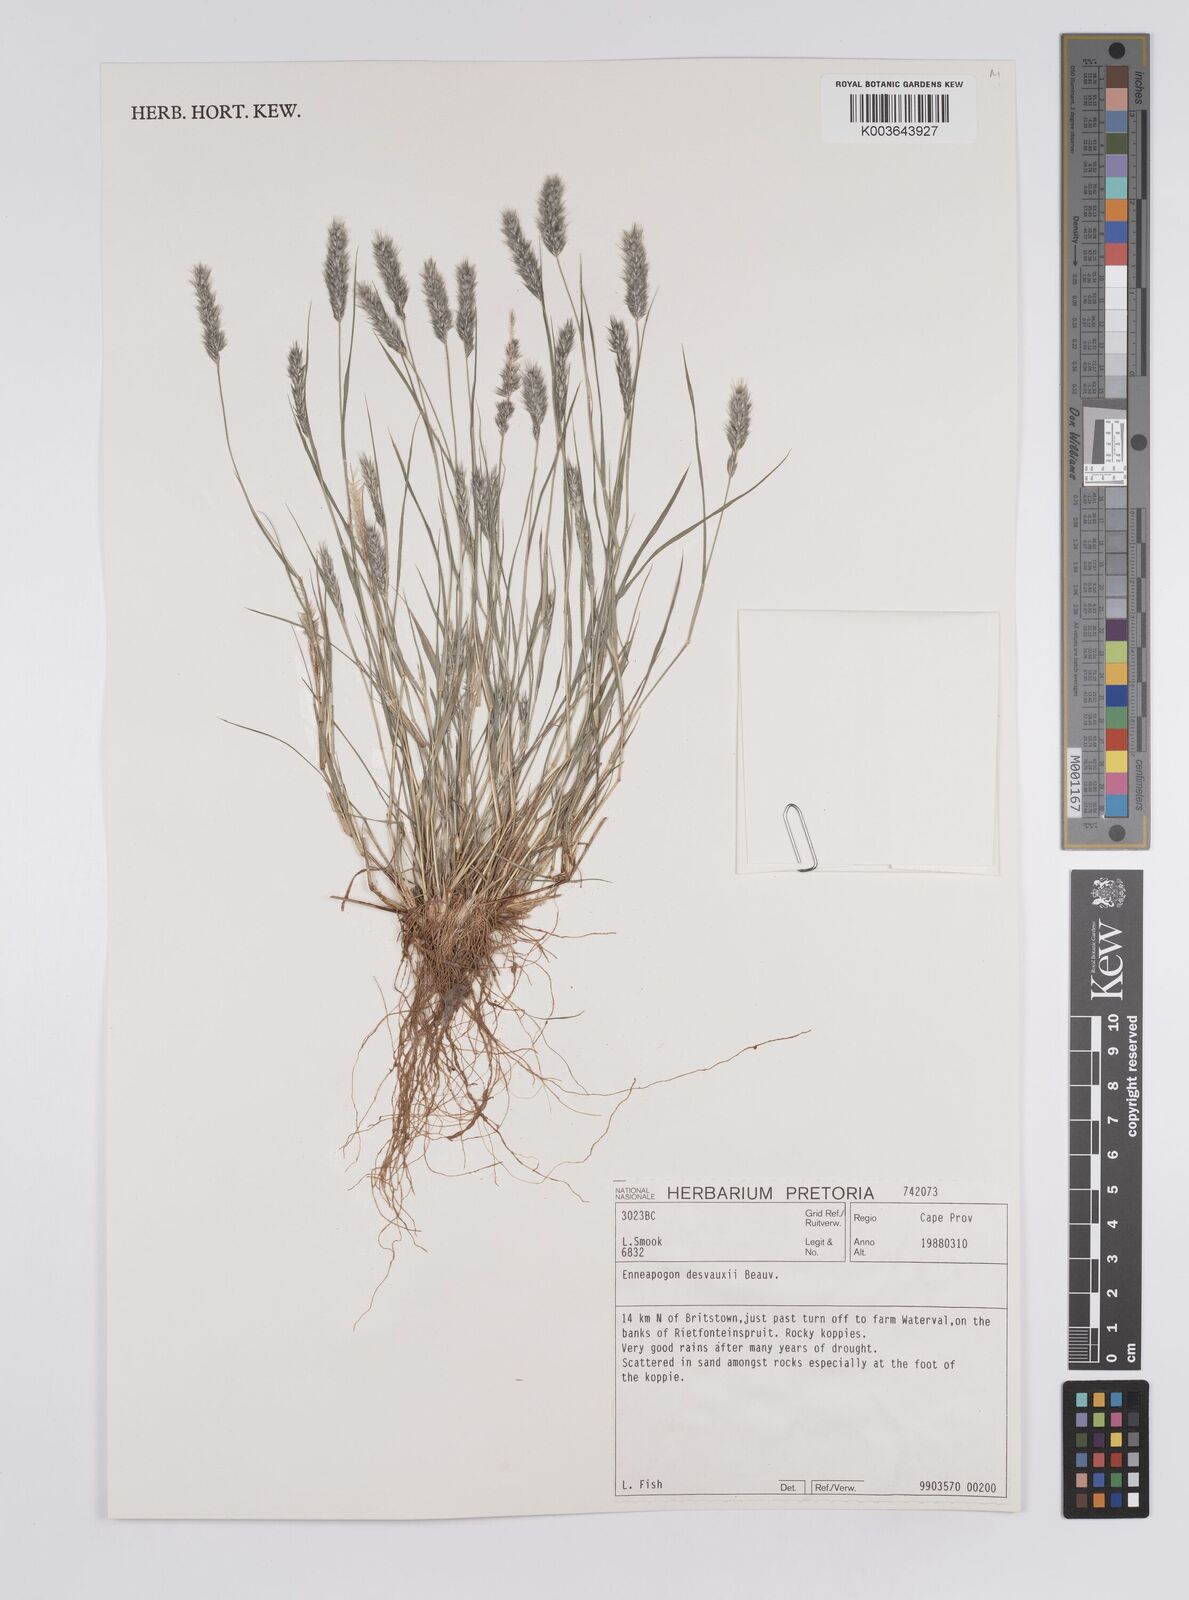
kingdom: Plantae
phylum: Tracheophyta
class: Liliopsida
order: Poales
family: Poaceae
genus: Enneapogon
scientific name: Enneapogon desvauxii
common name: Feather pappus grass
